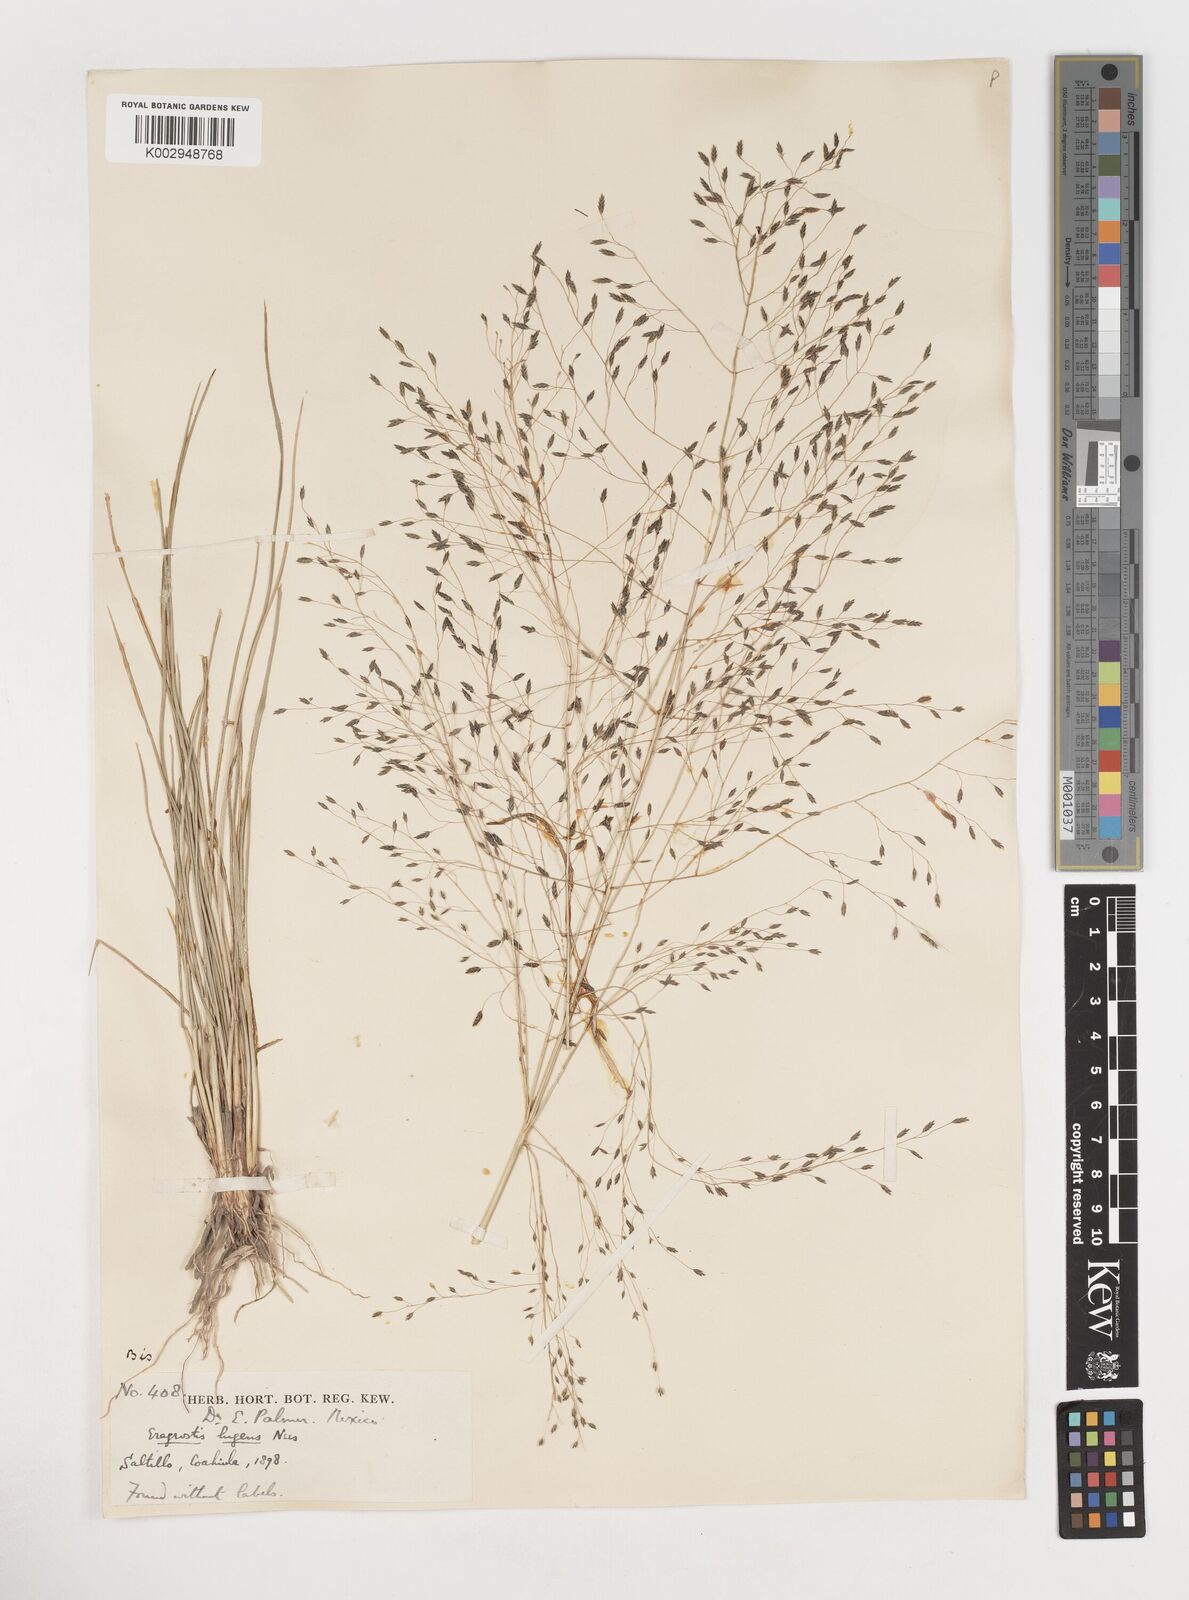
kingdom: Plantae
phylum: Tracheophyta
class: Liliopsida
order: Poales
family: Poaceae
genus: Eragrostis
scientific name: Eragrostis
